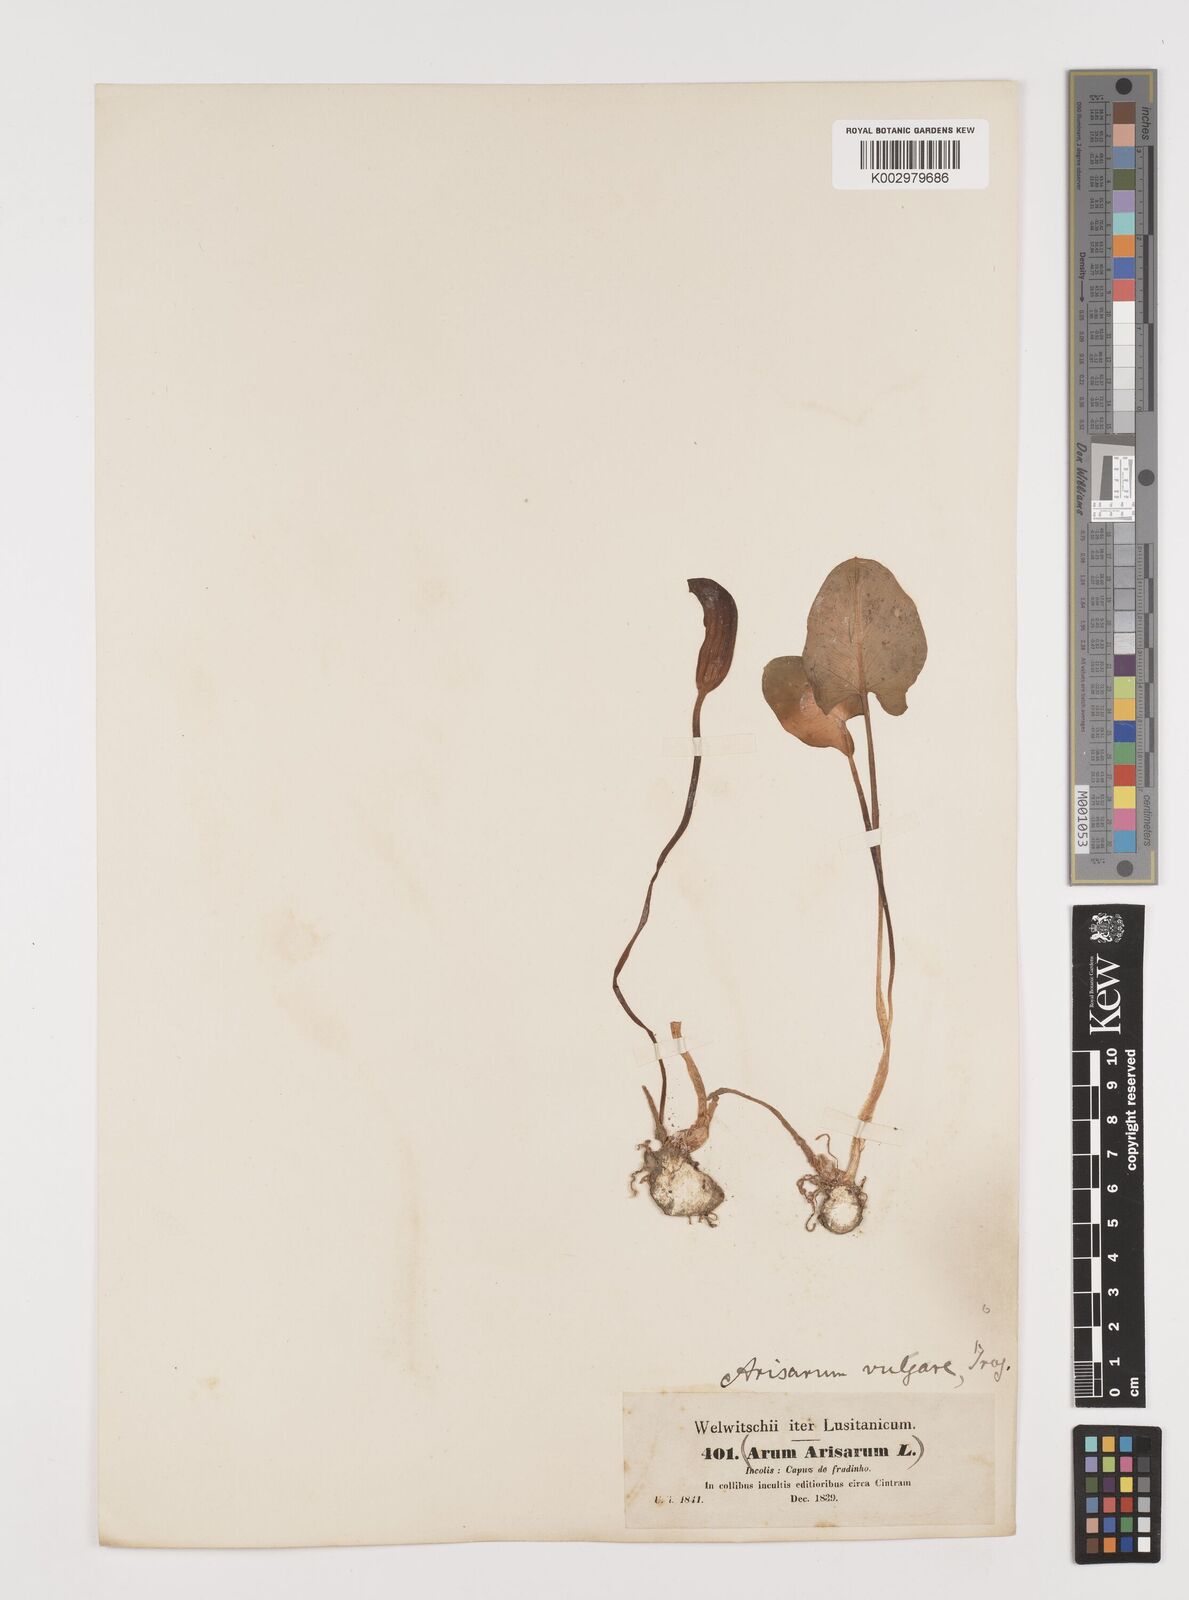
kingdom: Plantae
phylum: Tracheophyta
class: Liliopsida
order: Alismatales
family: Araceae
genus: Arisarum
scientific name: Arisarum simorrhinum
